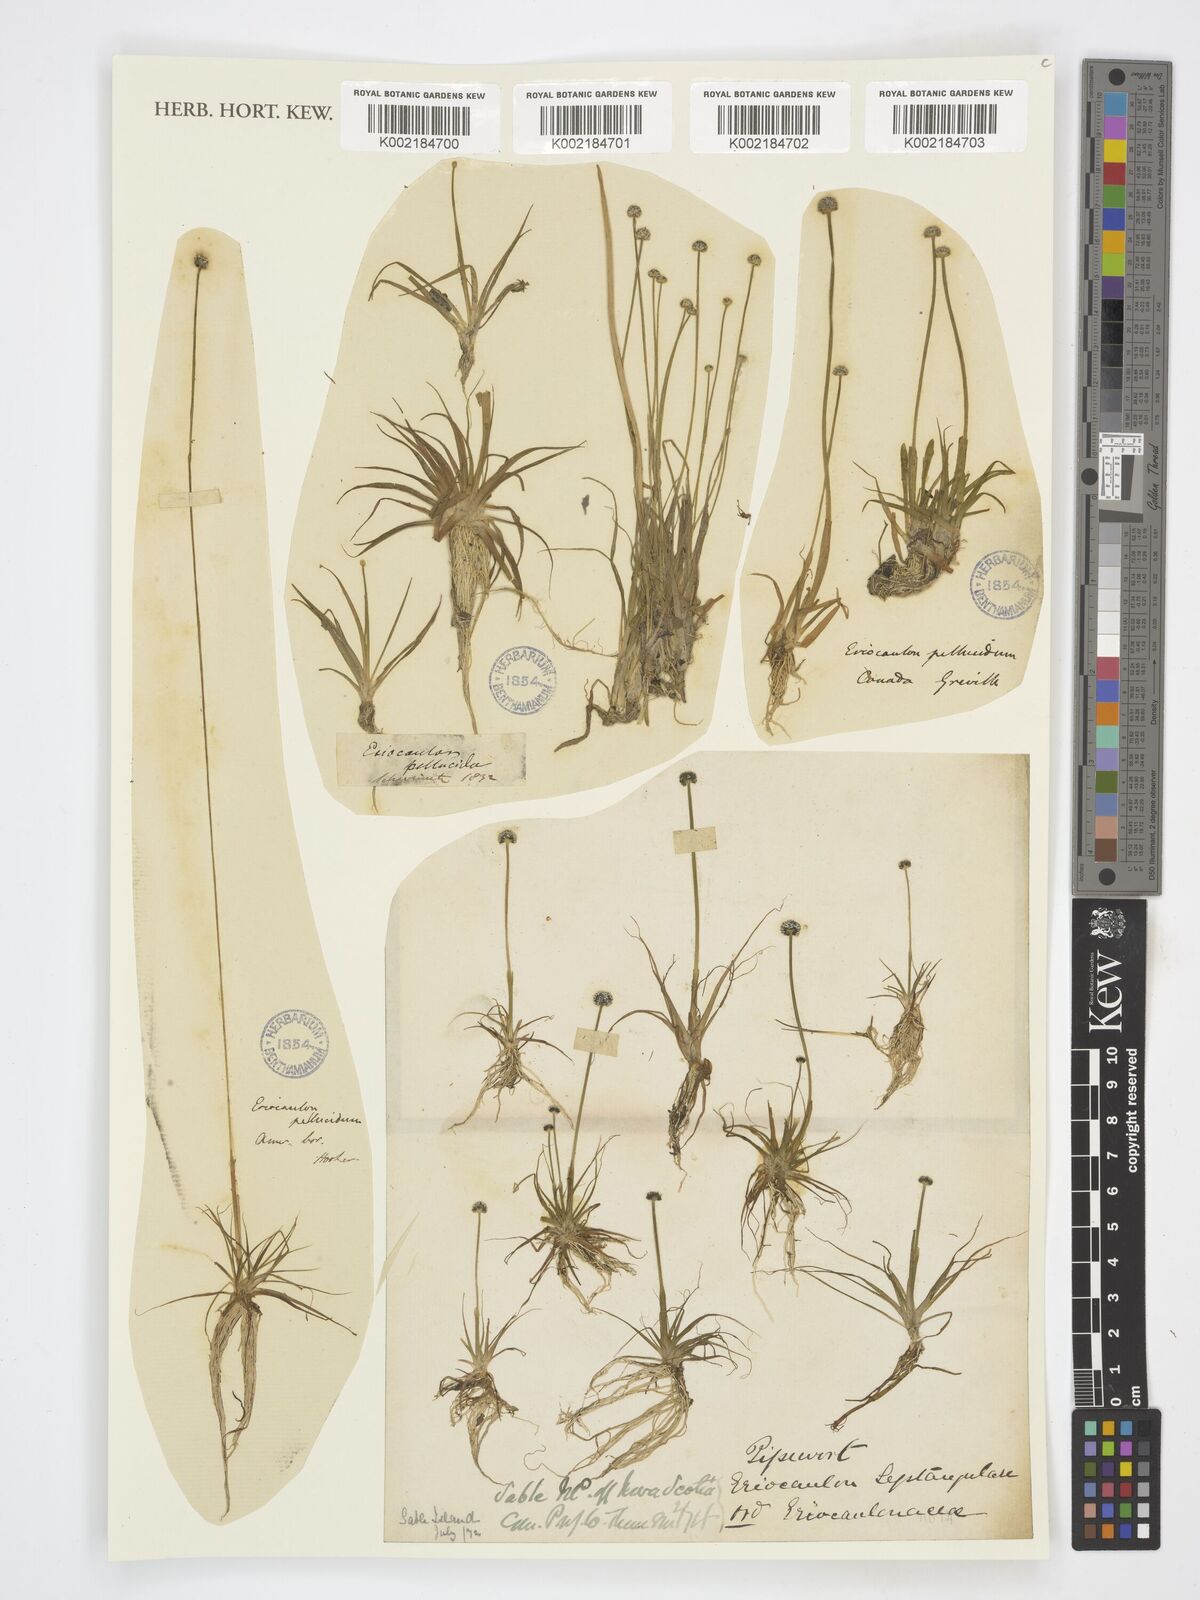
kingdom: Plantae
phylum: Tracheophyta
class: Liliopsida
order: Poales
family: Eriocaulaceae
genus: Eriocaulon
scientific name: Eriocaulon
